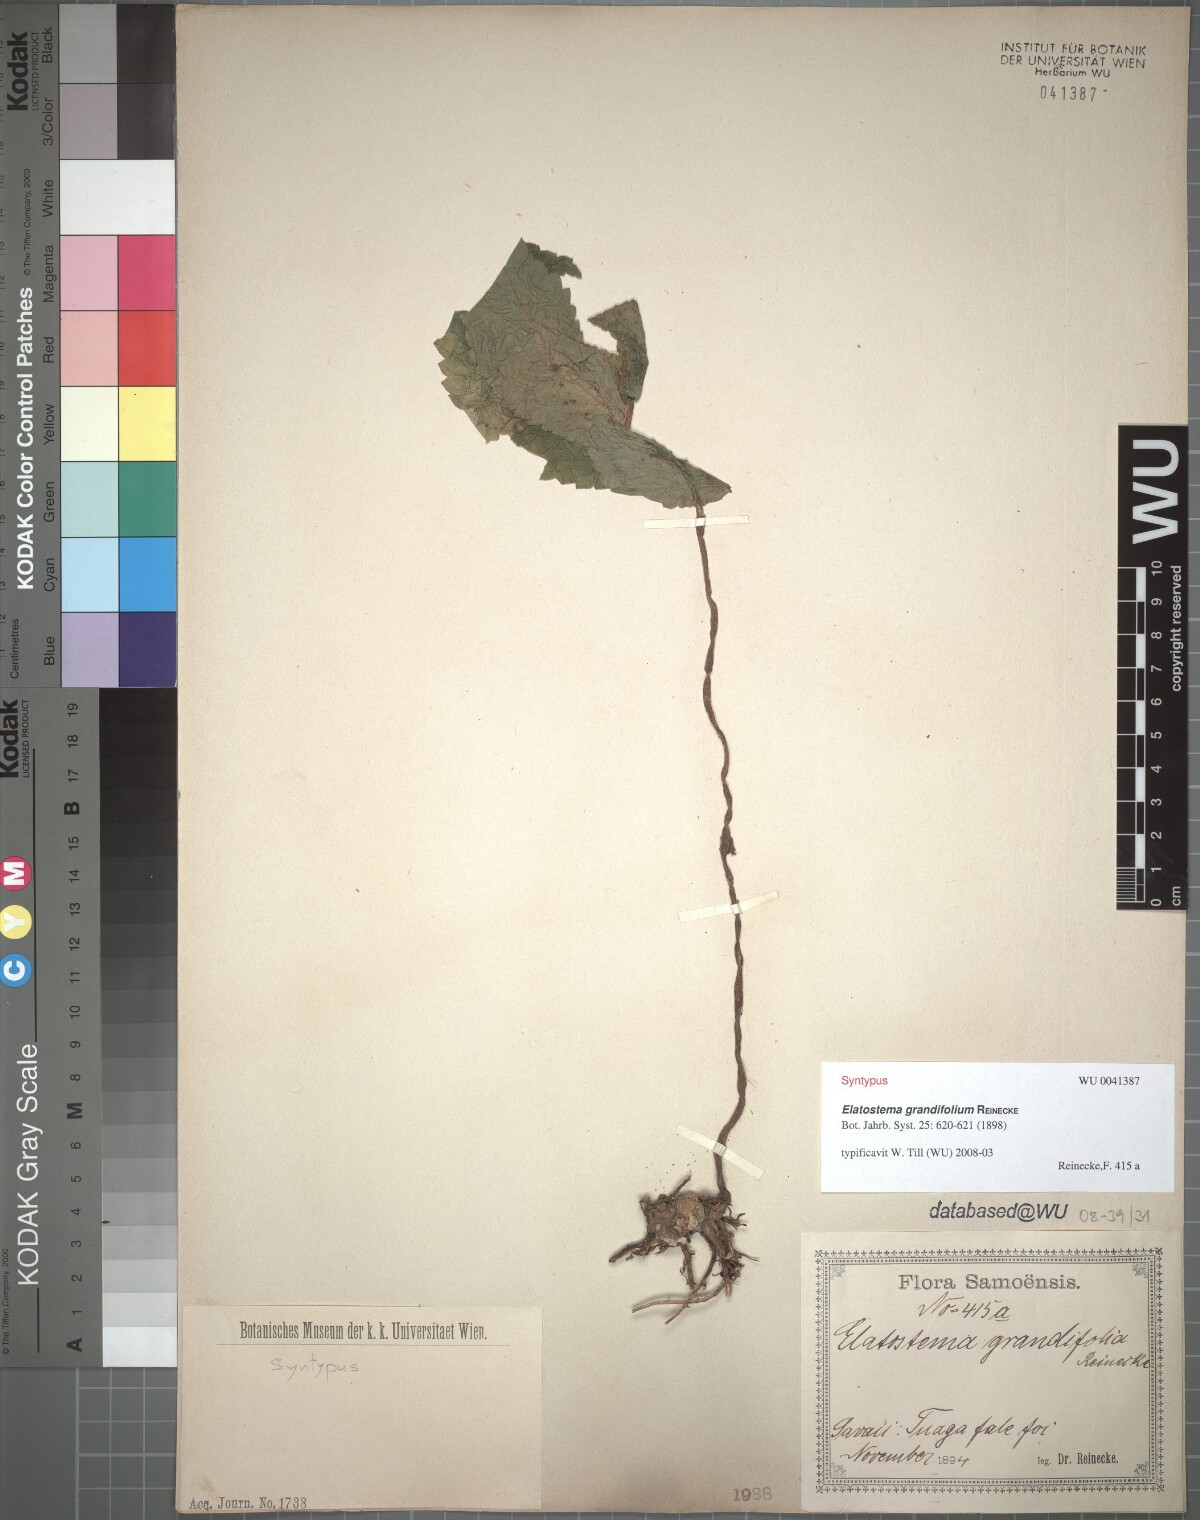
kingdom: Plantae
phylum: Tracheophyta
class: Magnoliopsida
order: Rosales
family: Urticaceae
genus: Elatostema
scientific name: Elatostema grandifolium
